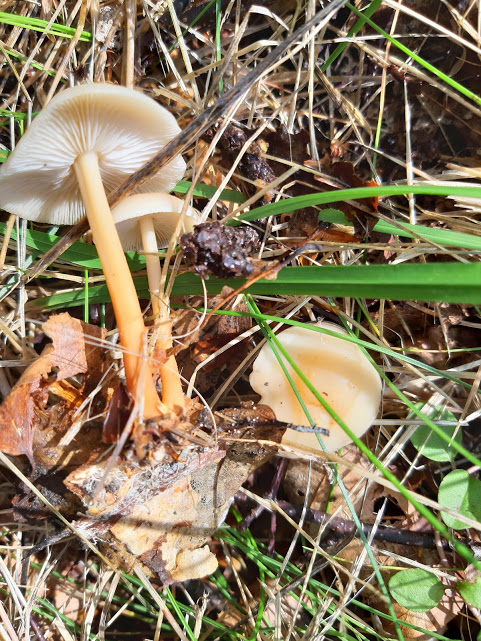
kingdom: Fungi
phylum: Basidiomycota
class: Agaricomycetes
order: Agaricales
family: Omphalotaceae
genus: Gymnopus
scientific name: Gymnopus
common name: fladhat
